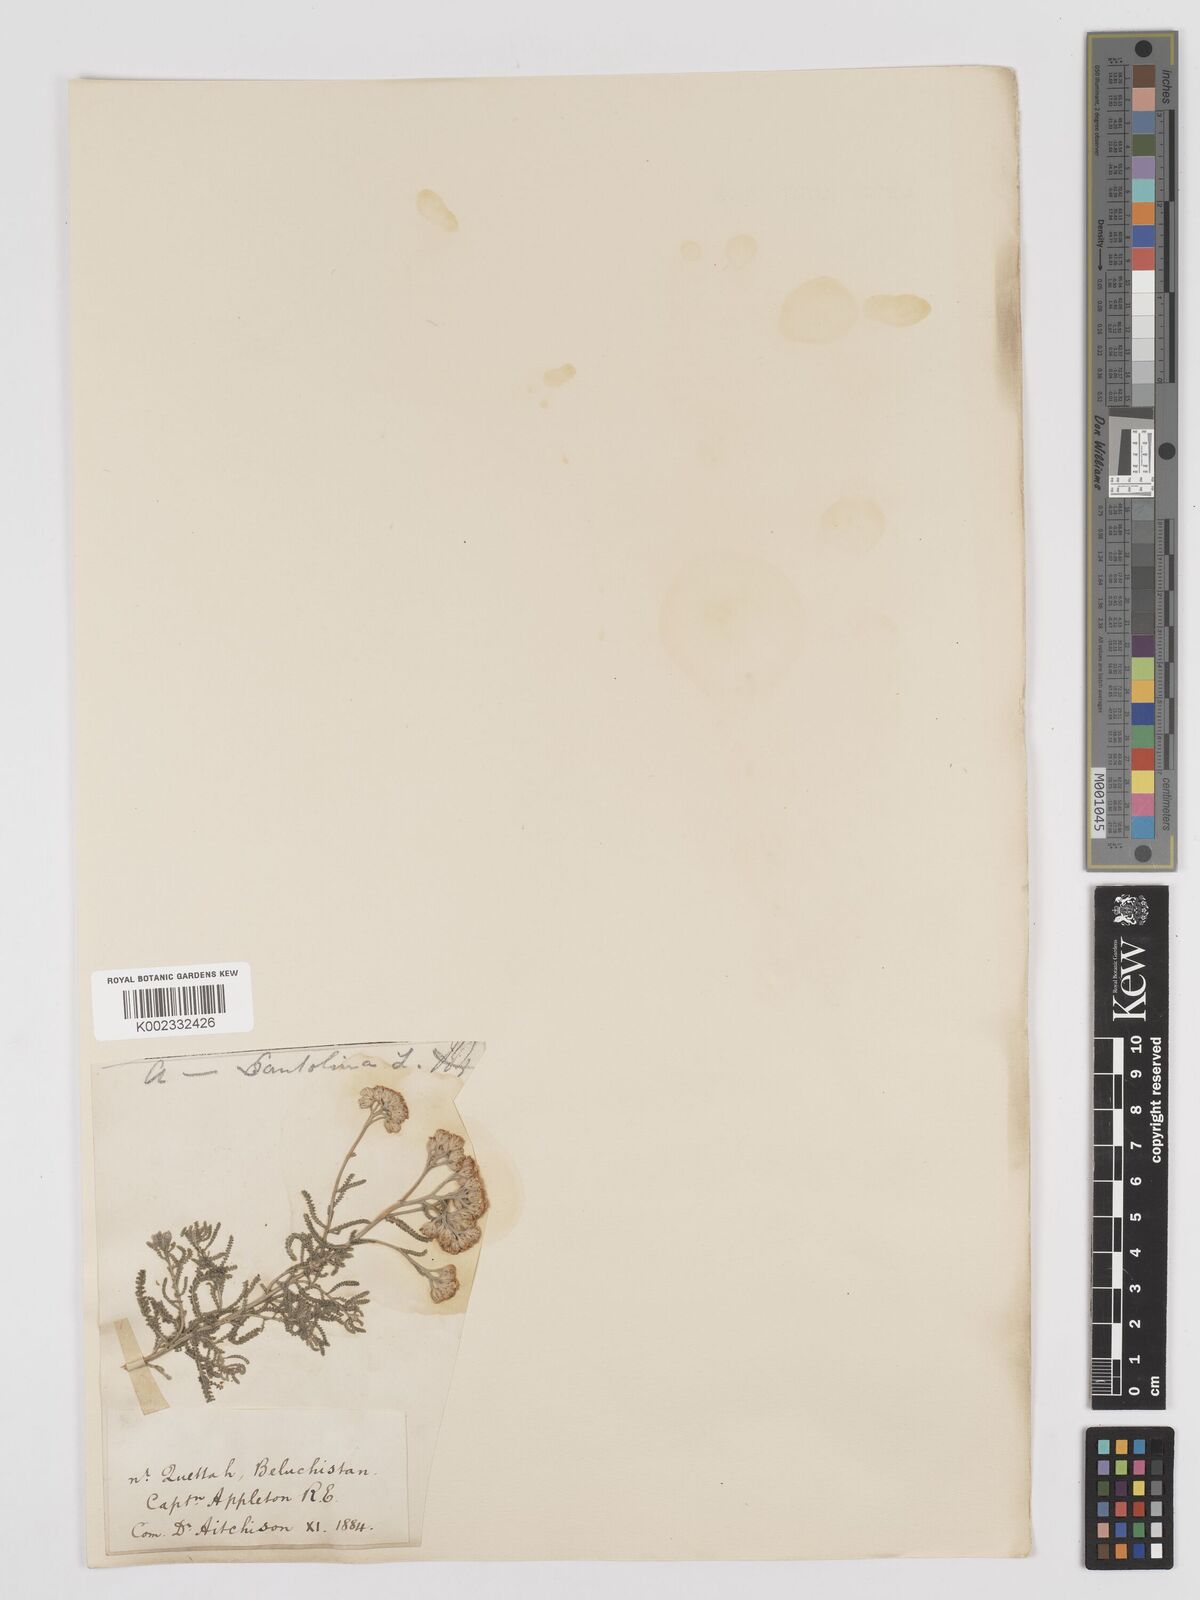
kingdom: Plantae
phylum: Tracheophyta
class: Magnoliopsida
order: Asterales
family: Asteraceae
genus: Achillea
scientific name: Achillea tenuifolia
